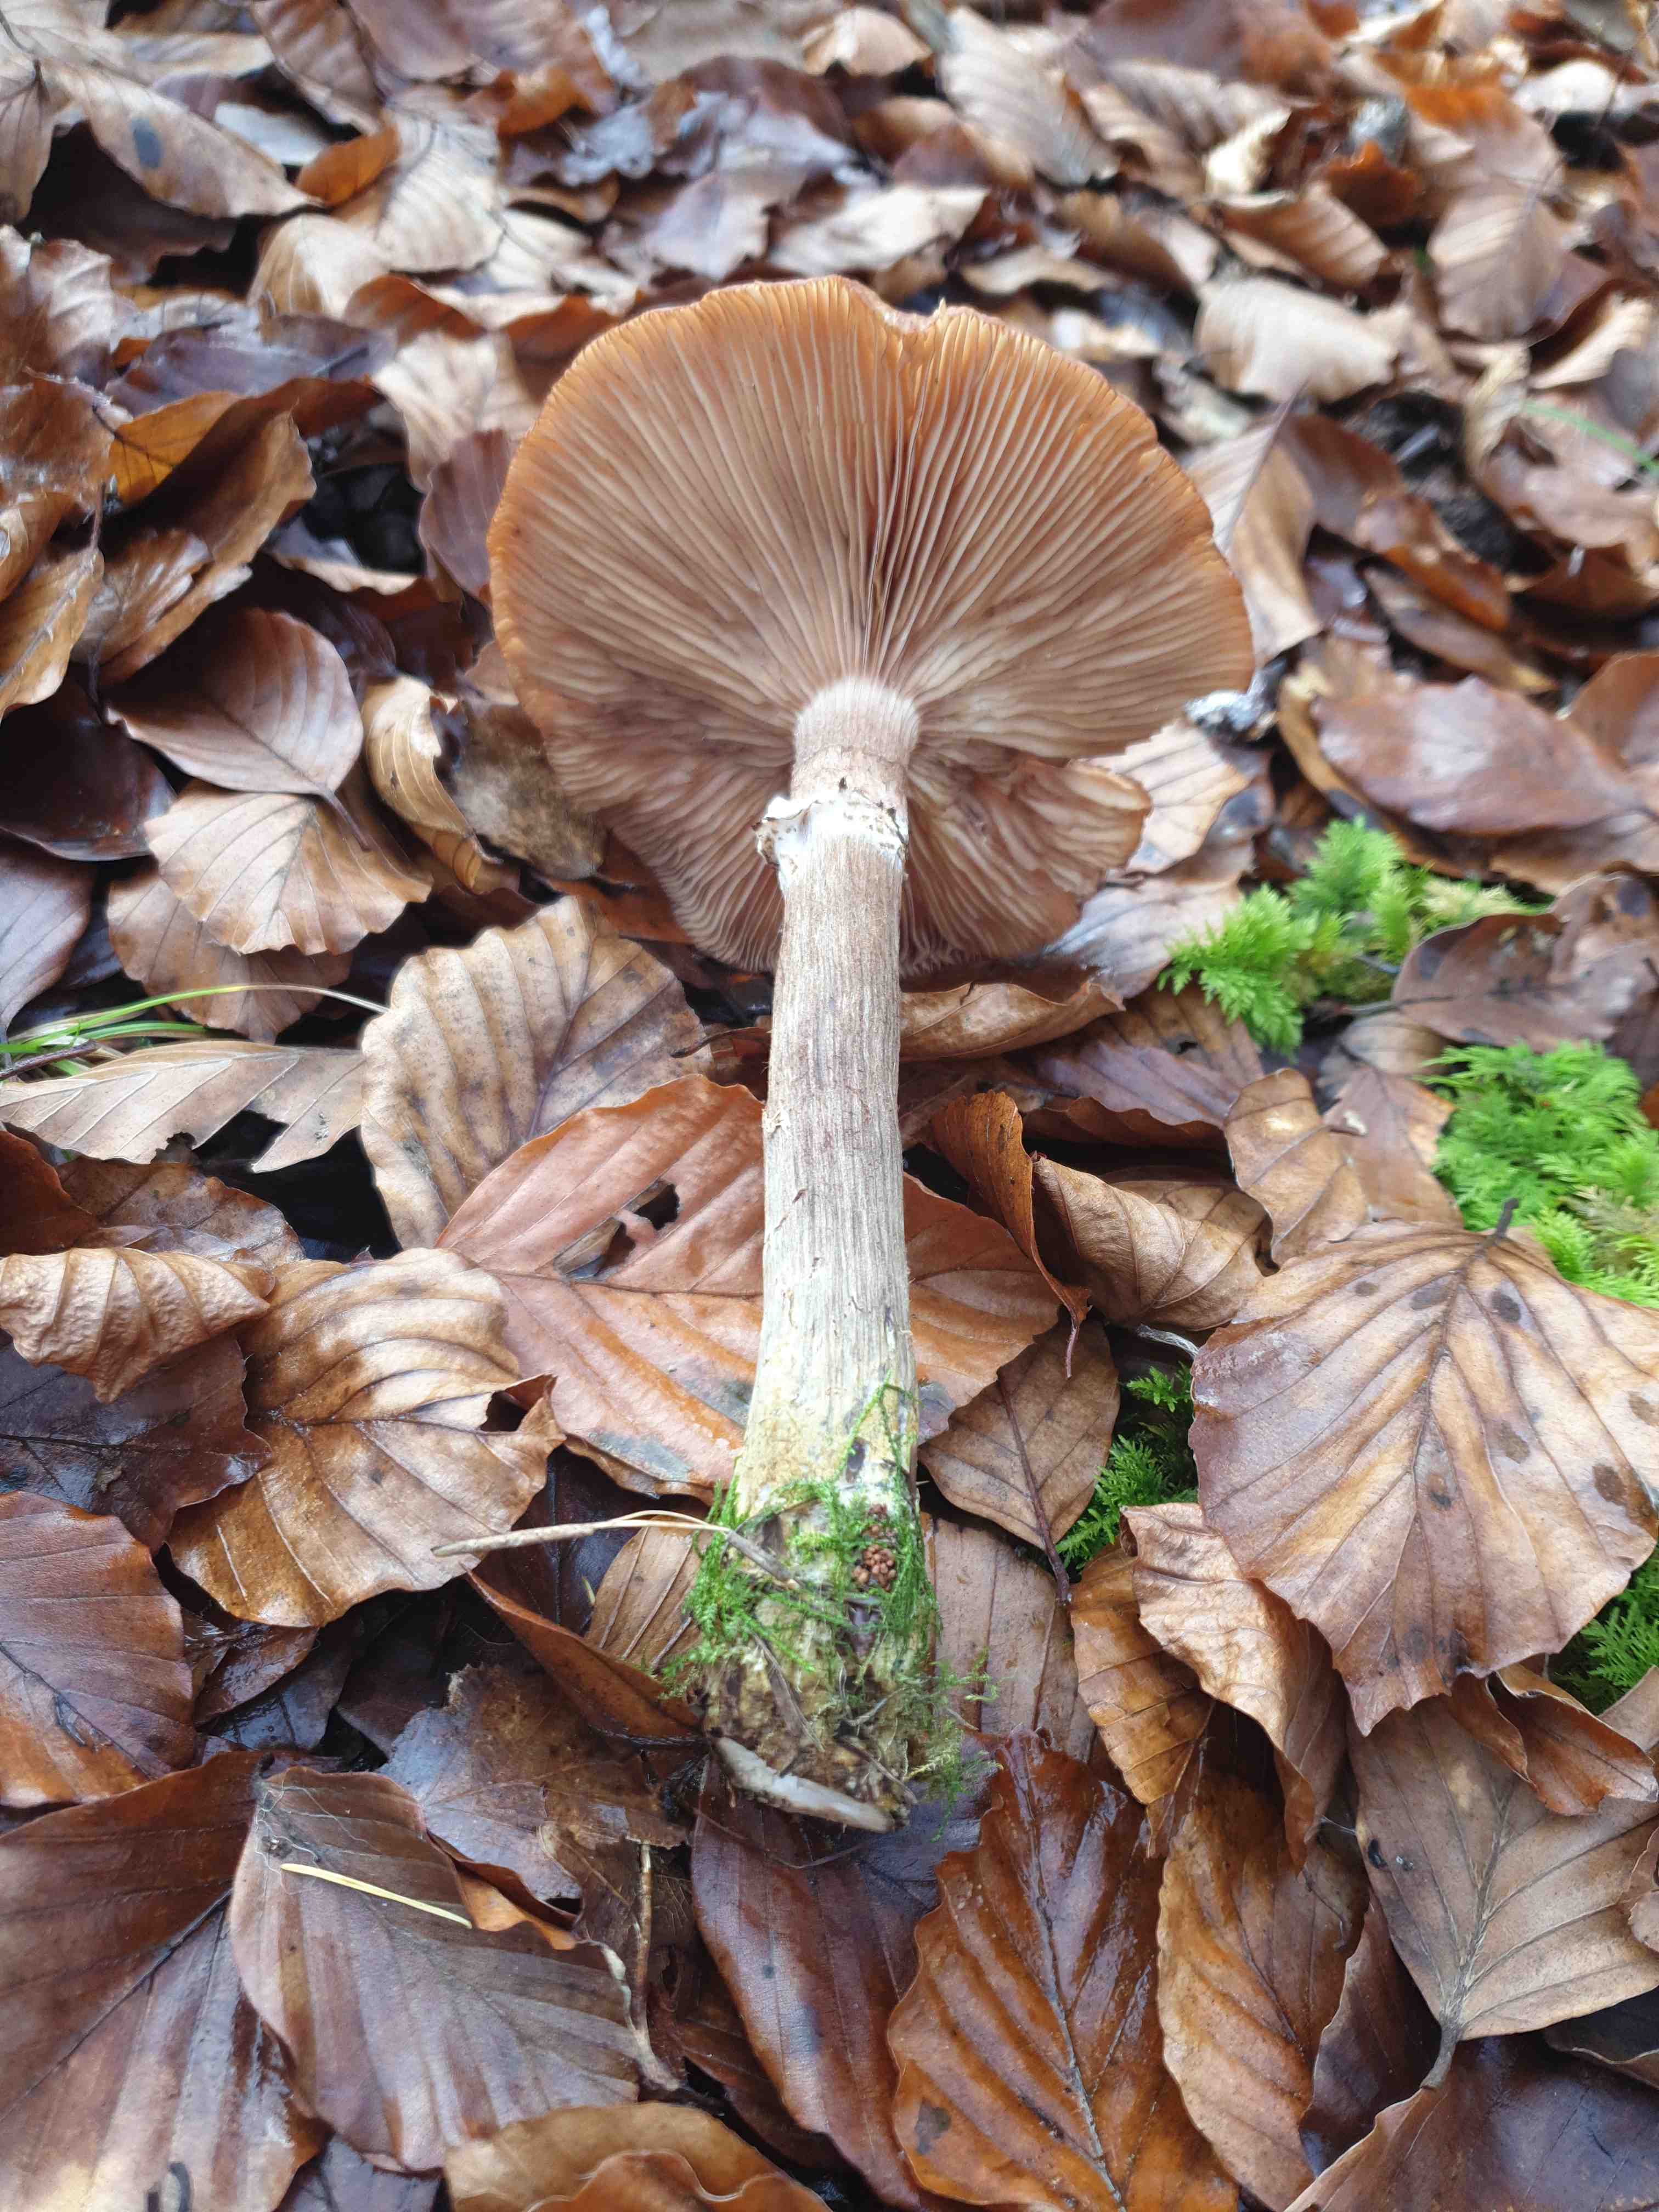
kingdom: Fungi
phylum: Basidiomycota
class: Agaricomycetes
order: Agaricales
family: Physalacriaceae
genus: Armillaria
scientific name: Armillaria lutea
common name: køllestokket honningsvamp
